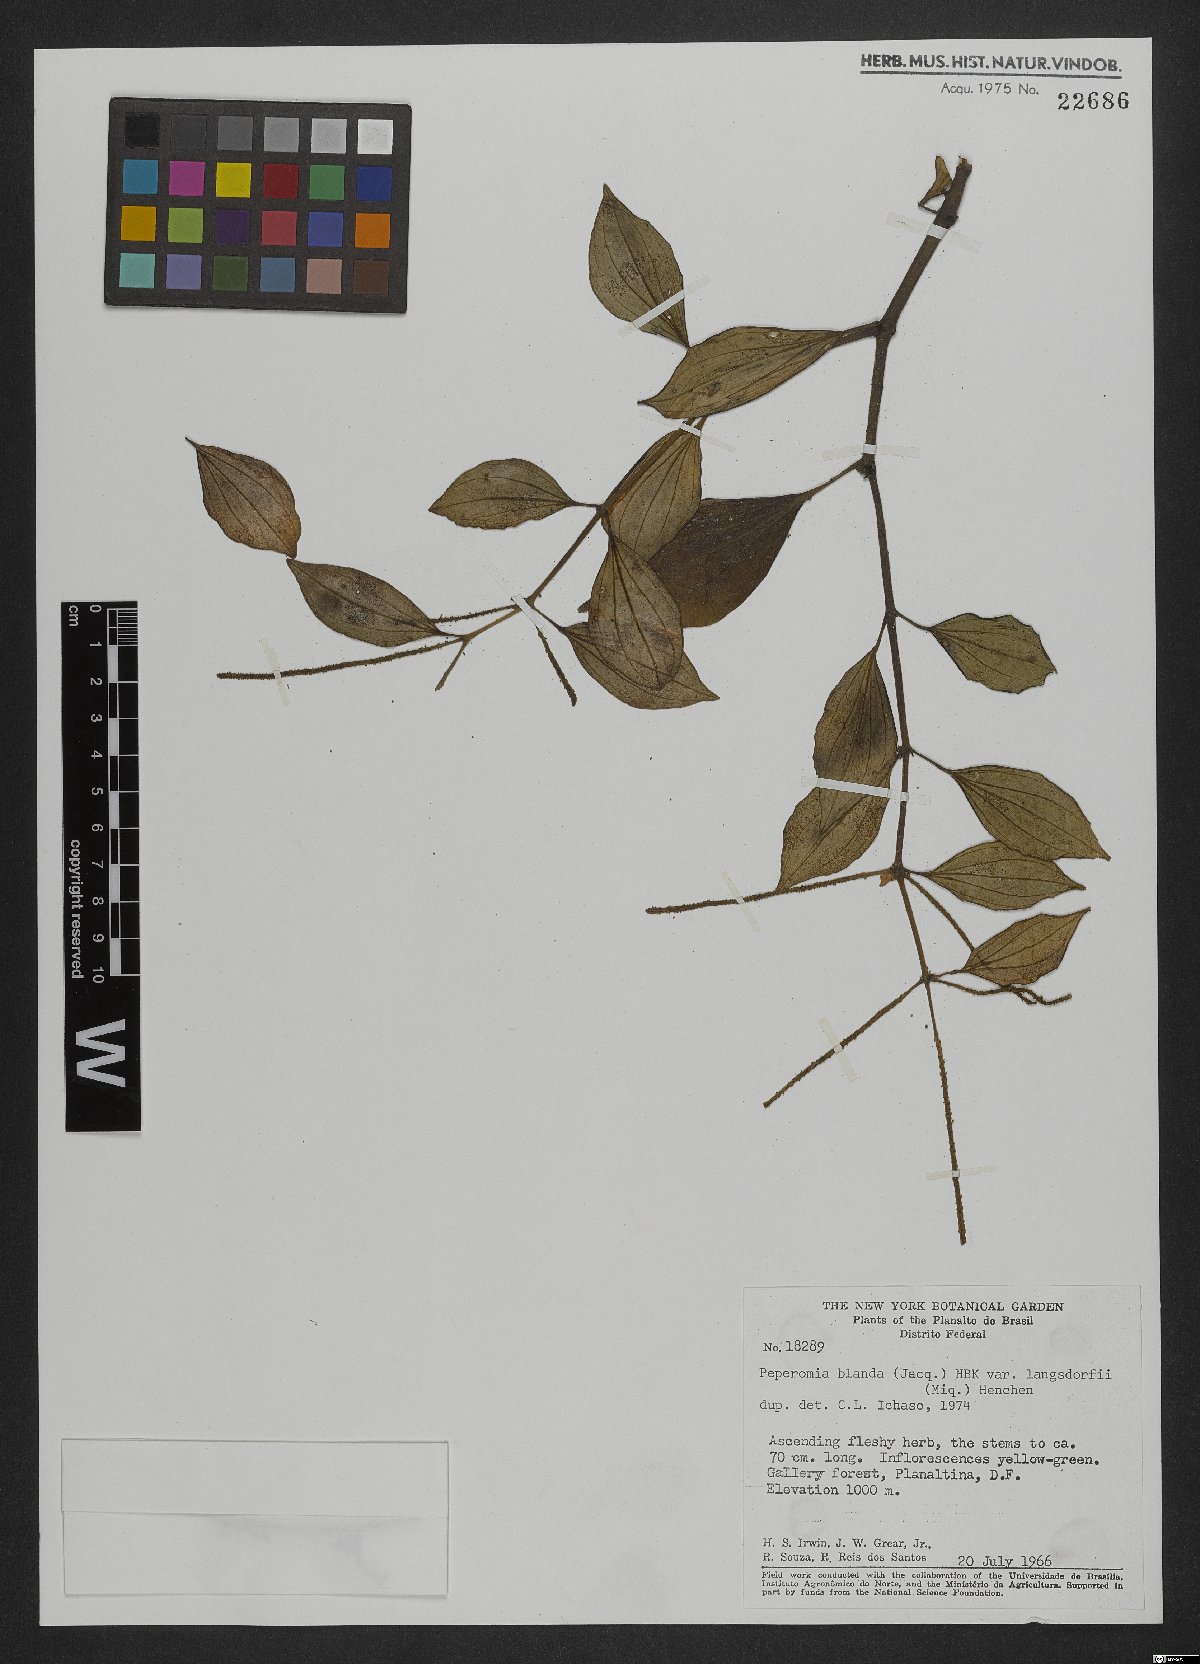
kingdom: Plantae
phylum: Tracheophyta
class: Magnoliopsida
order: Piperales
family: Piperaceae
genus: Peperomia
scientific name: Peperomia blanda
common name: Arid-land peperomia
